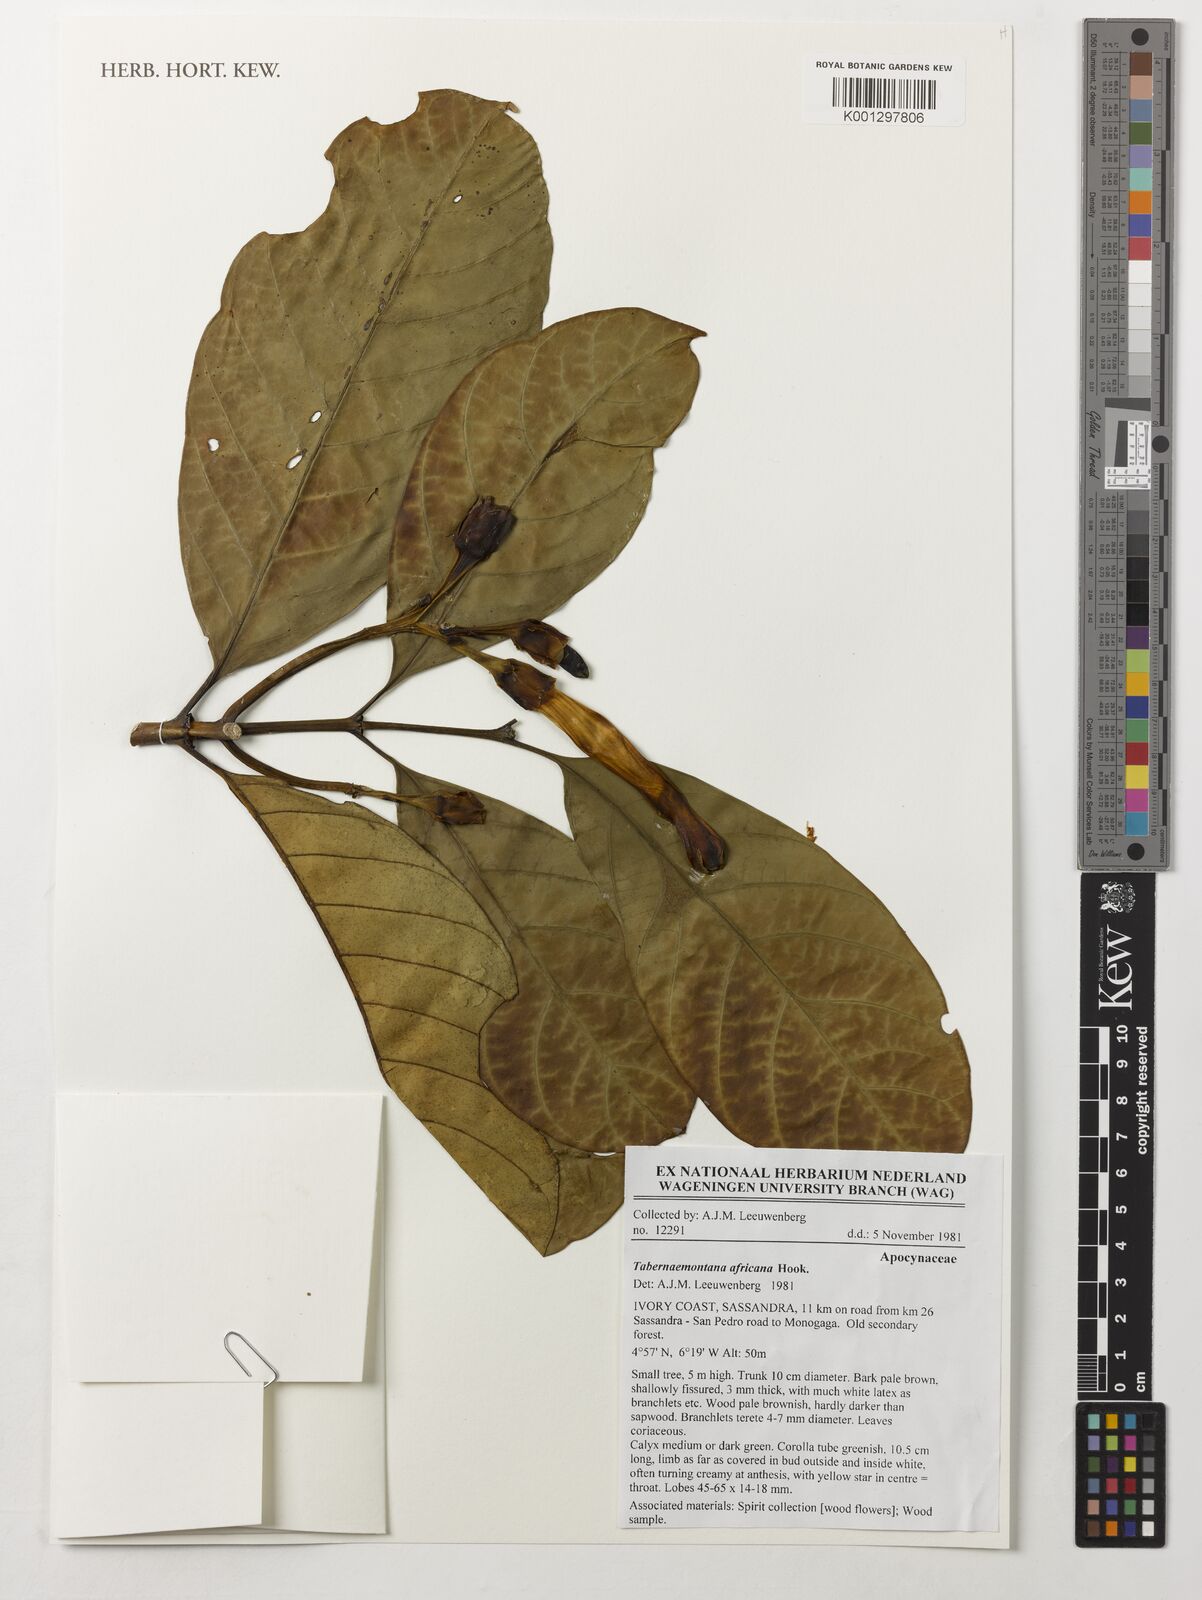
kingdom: Plantae
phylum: Tracheophyta
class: Magnoliopsida
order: Gentianales
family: Apocynaceae
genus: Tabernaemontana
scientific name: Tabernaemontana africana
